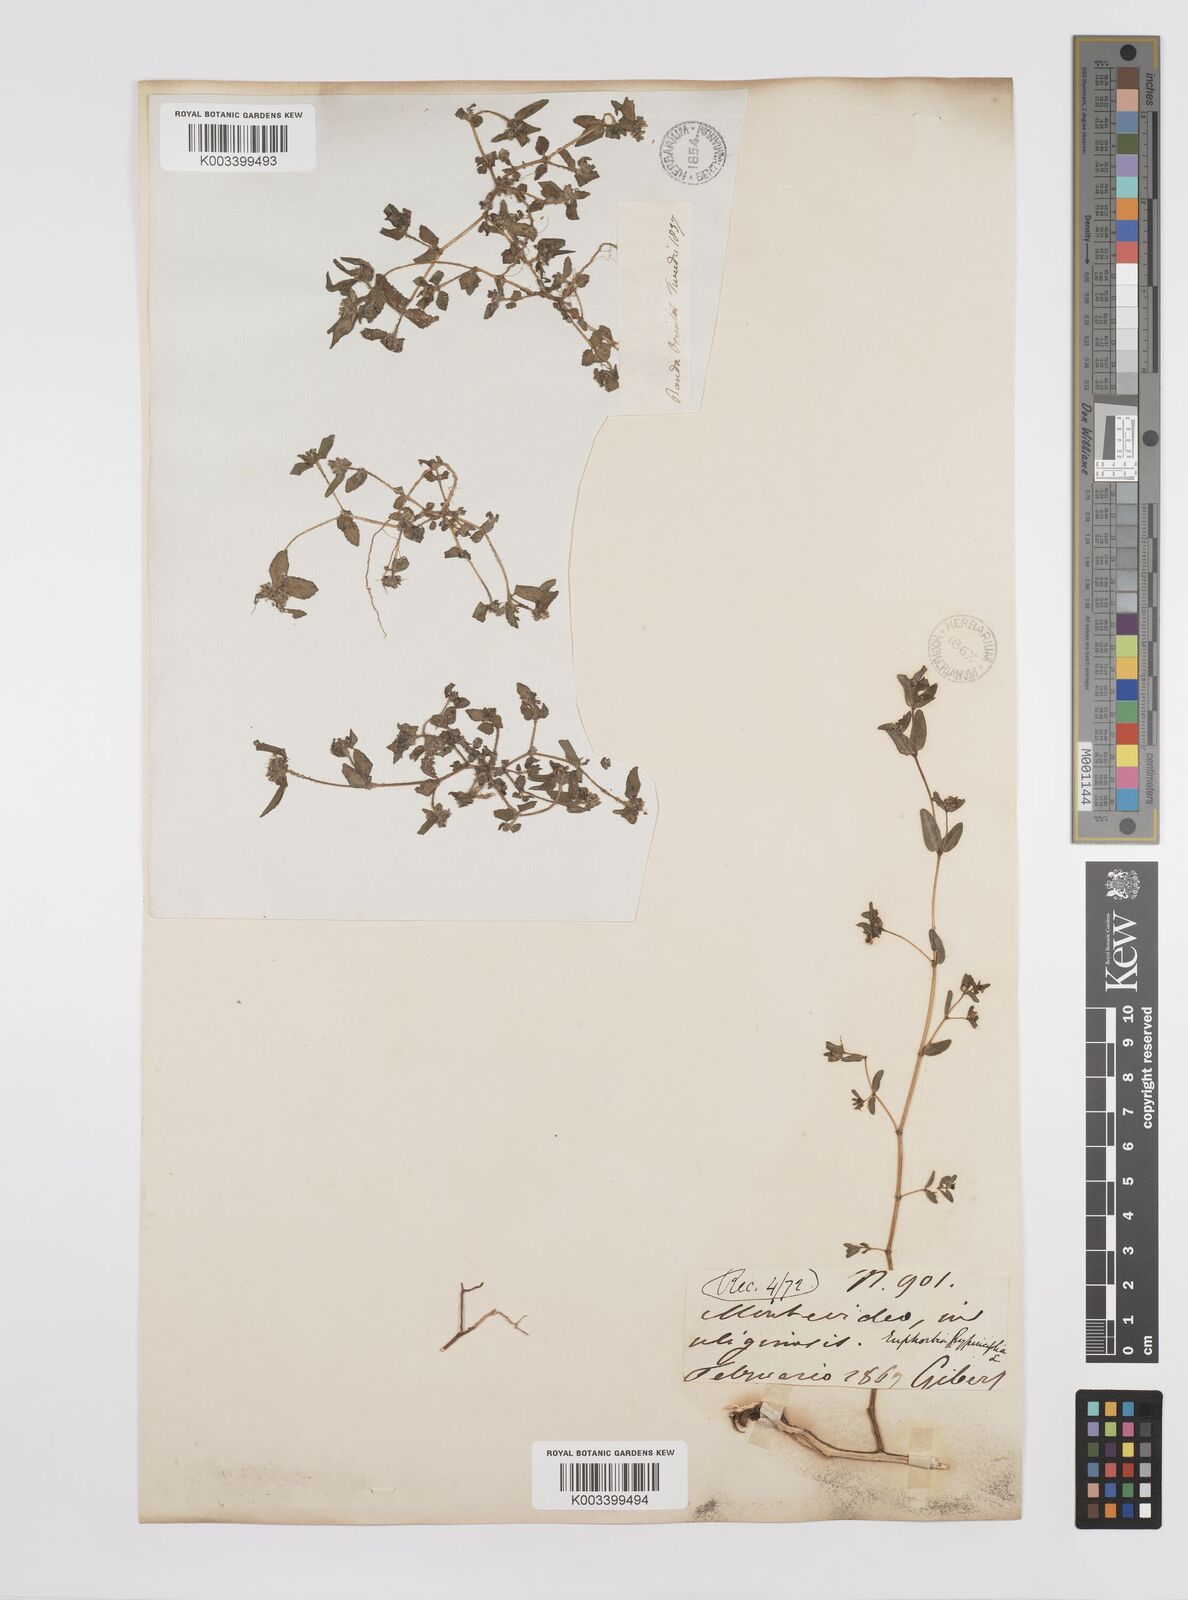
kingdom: Plantae
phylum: Tracheophyta
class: Magnoliopsida
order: Malpighiales
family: Euphorbiaceae
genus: Euphorbia
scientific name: Euphorbia hirta
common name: Pillpod sandmat
